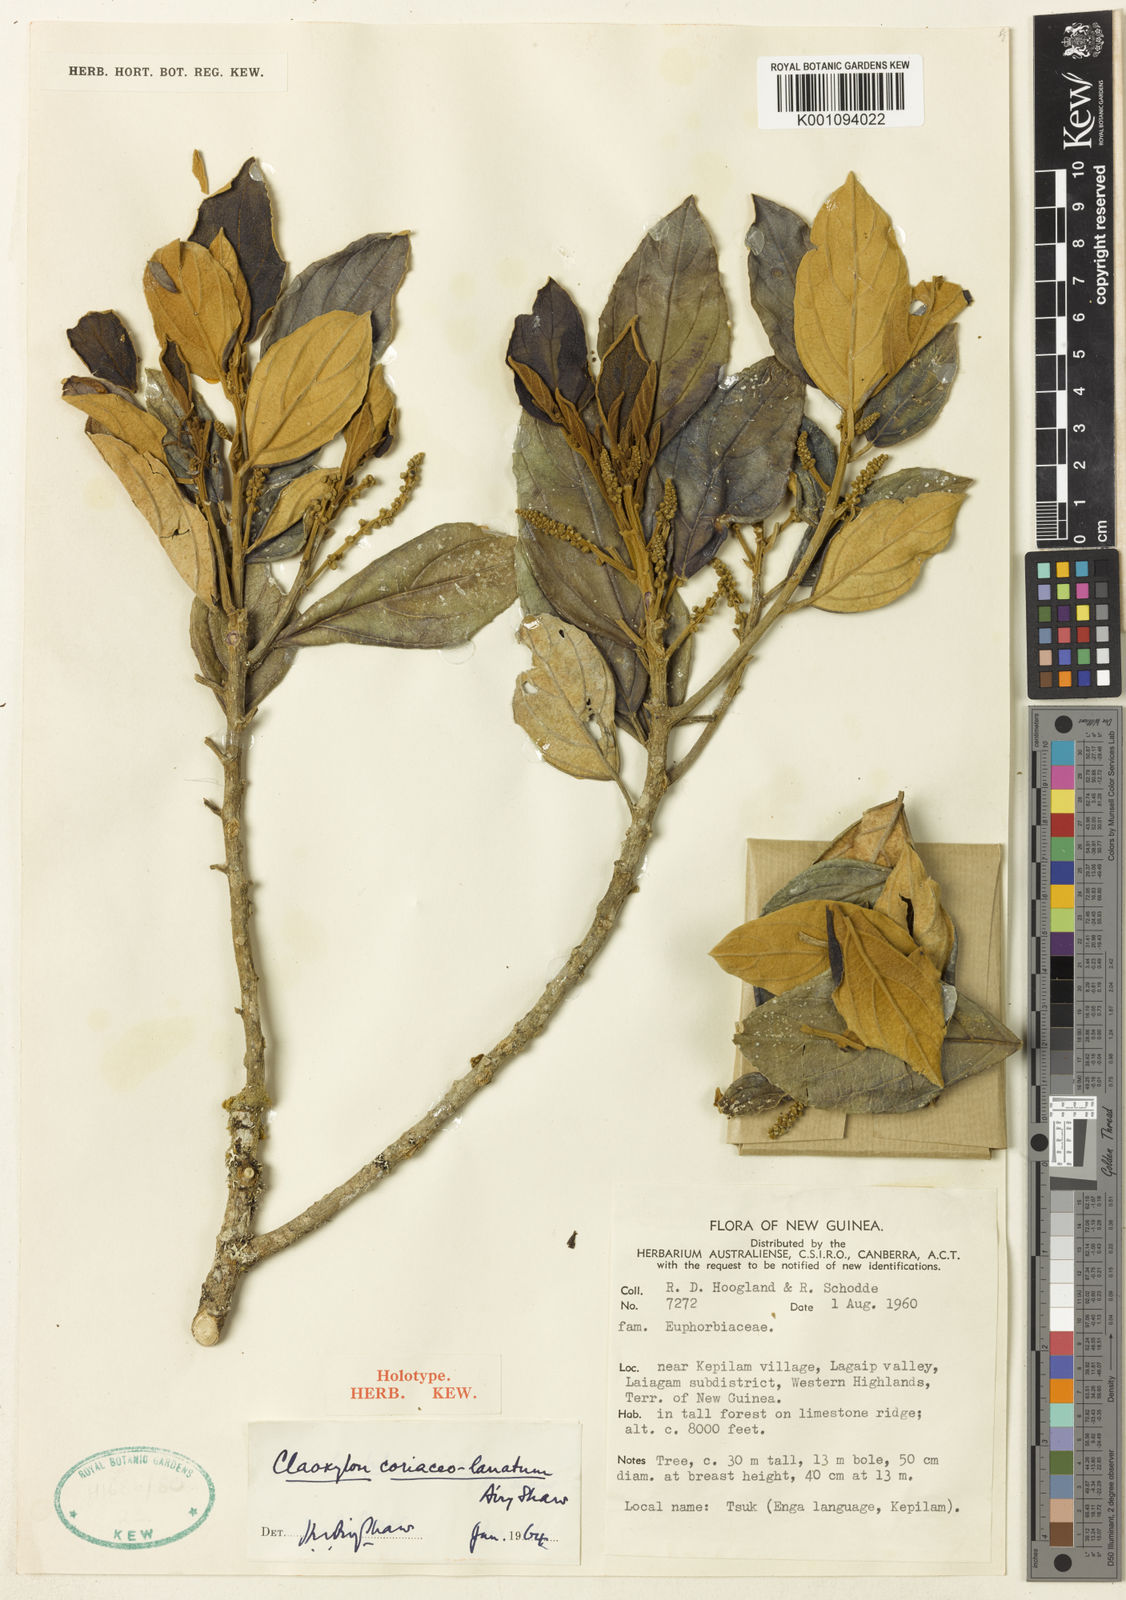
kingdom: Plantae
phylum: Tracheophyta
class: Magnoliopsida
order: Malpighiales
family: Euphorbiaceae
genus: Claoxylon
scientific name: Claoxylon coriaceolanatum
